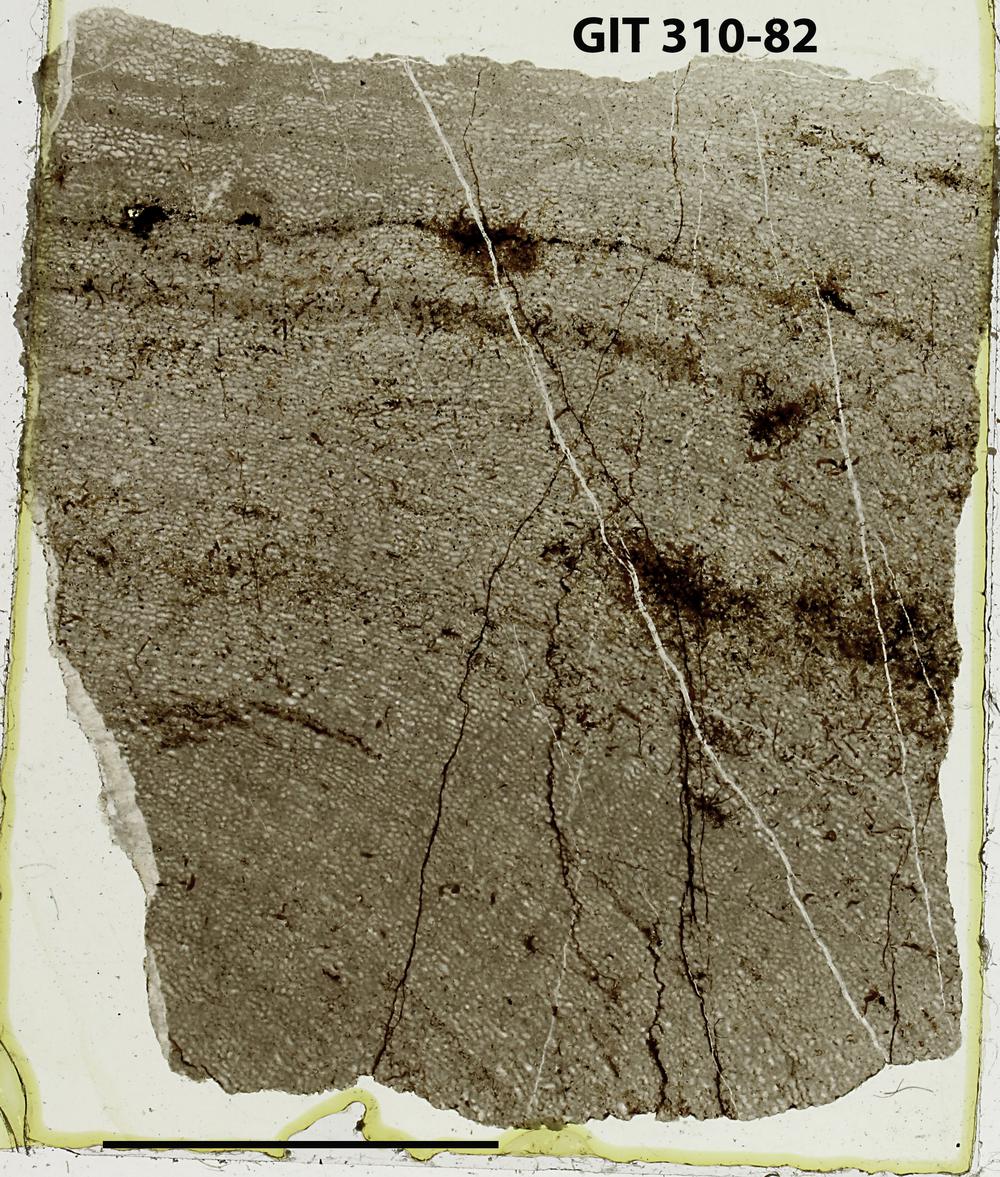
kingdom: Animalia
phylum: Porifera
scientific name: Porifera
